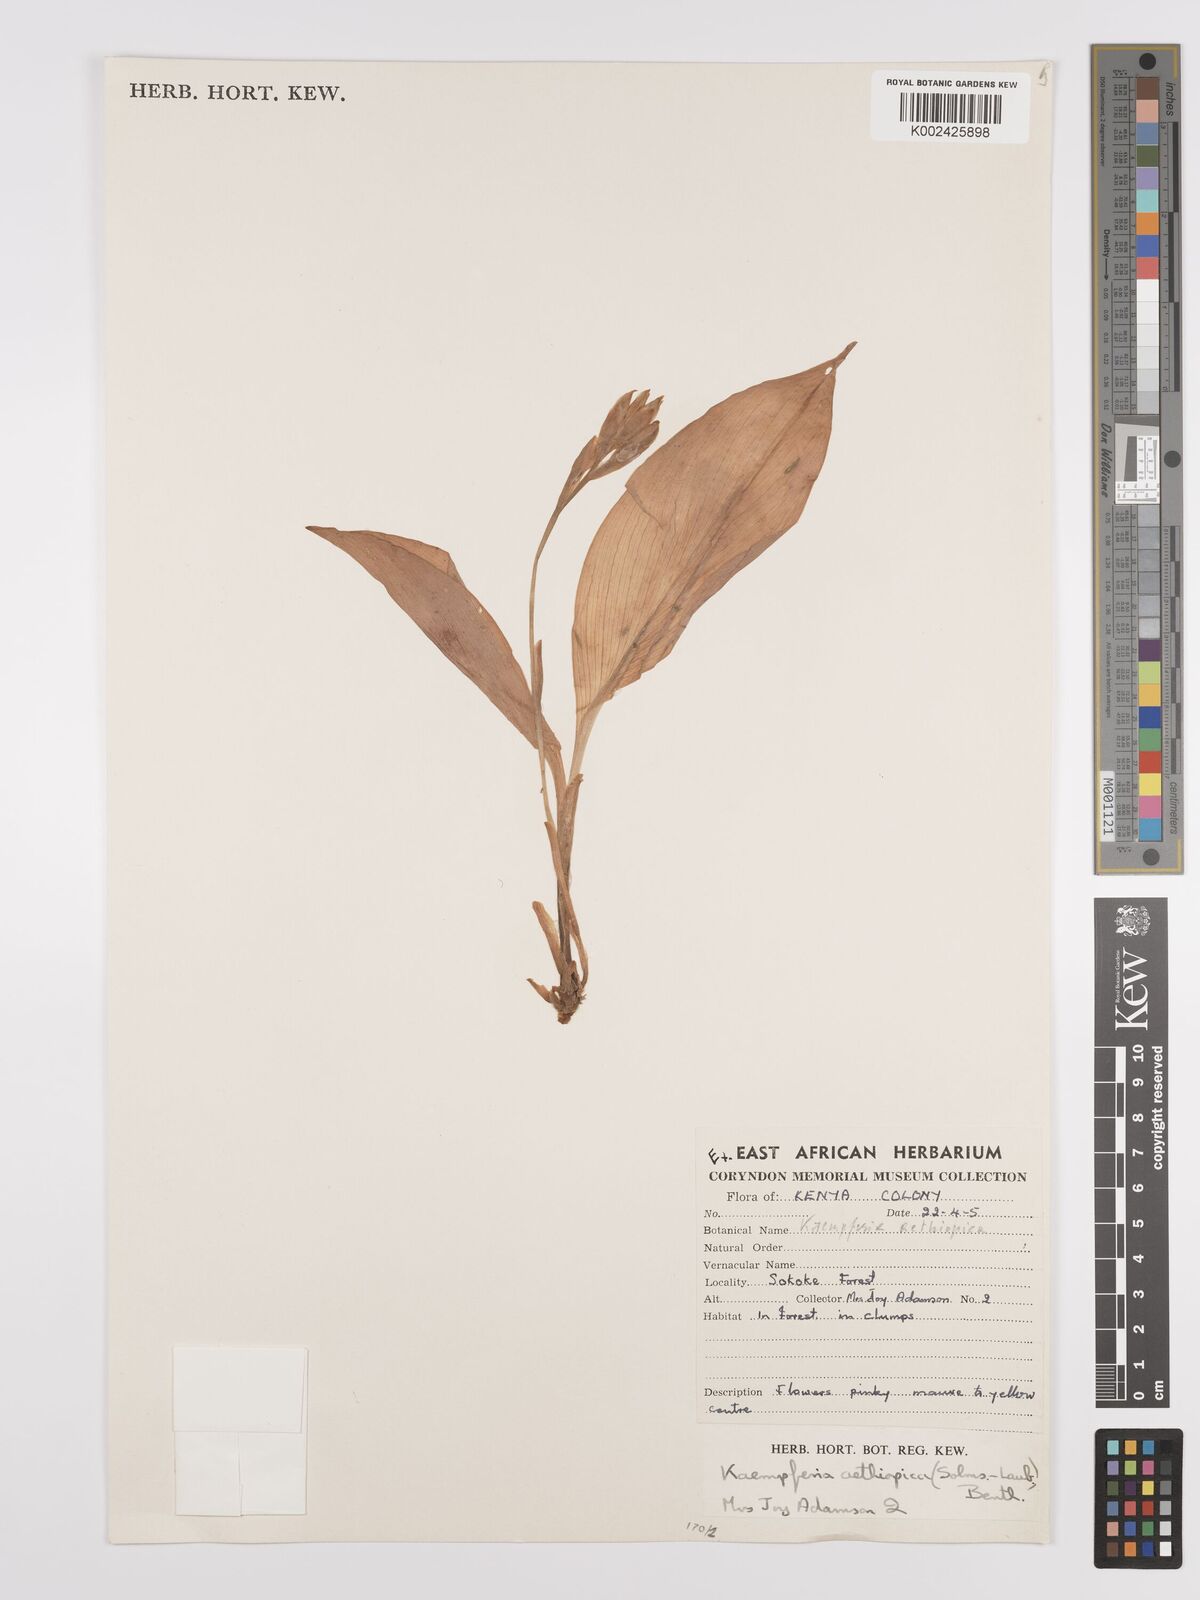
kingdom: Plantae
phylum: Tracheophyta
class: Liliopsida
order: Zingiberales
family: Zingiberaceae
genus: Siphonochilus
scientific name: Siphonochilus aethiopicus
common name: African-ginger
